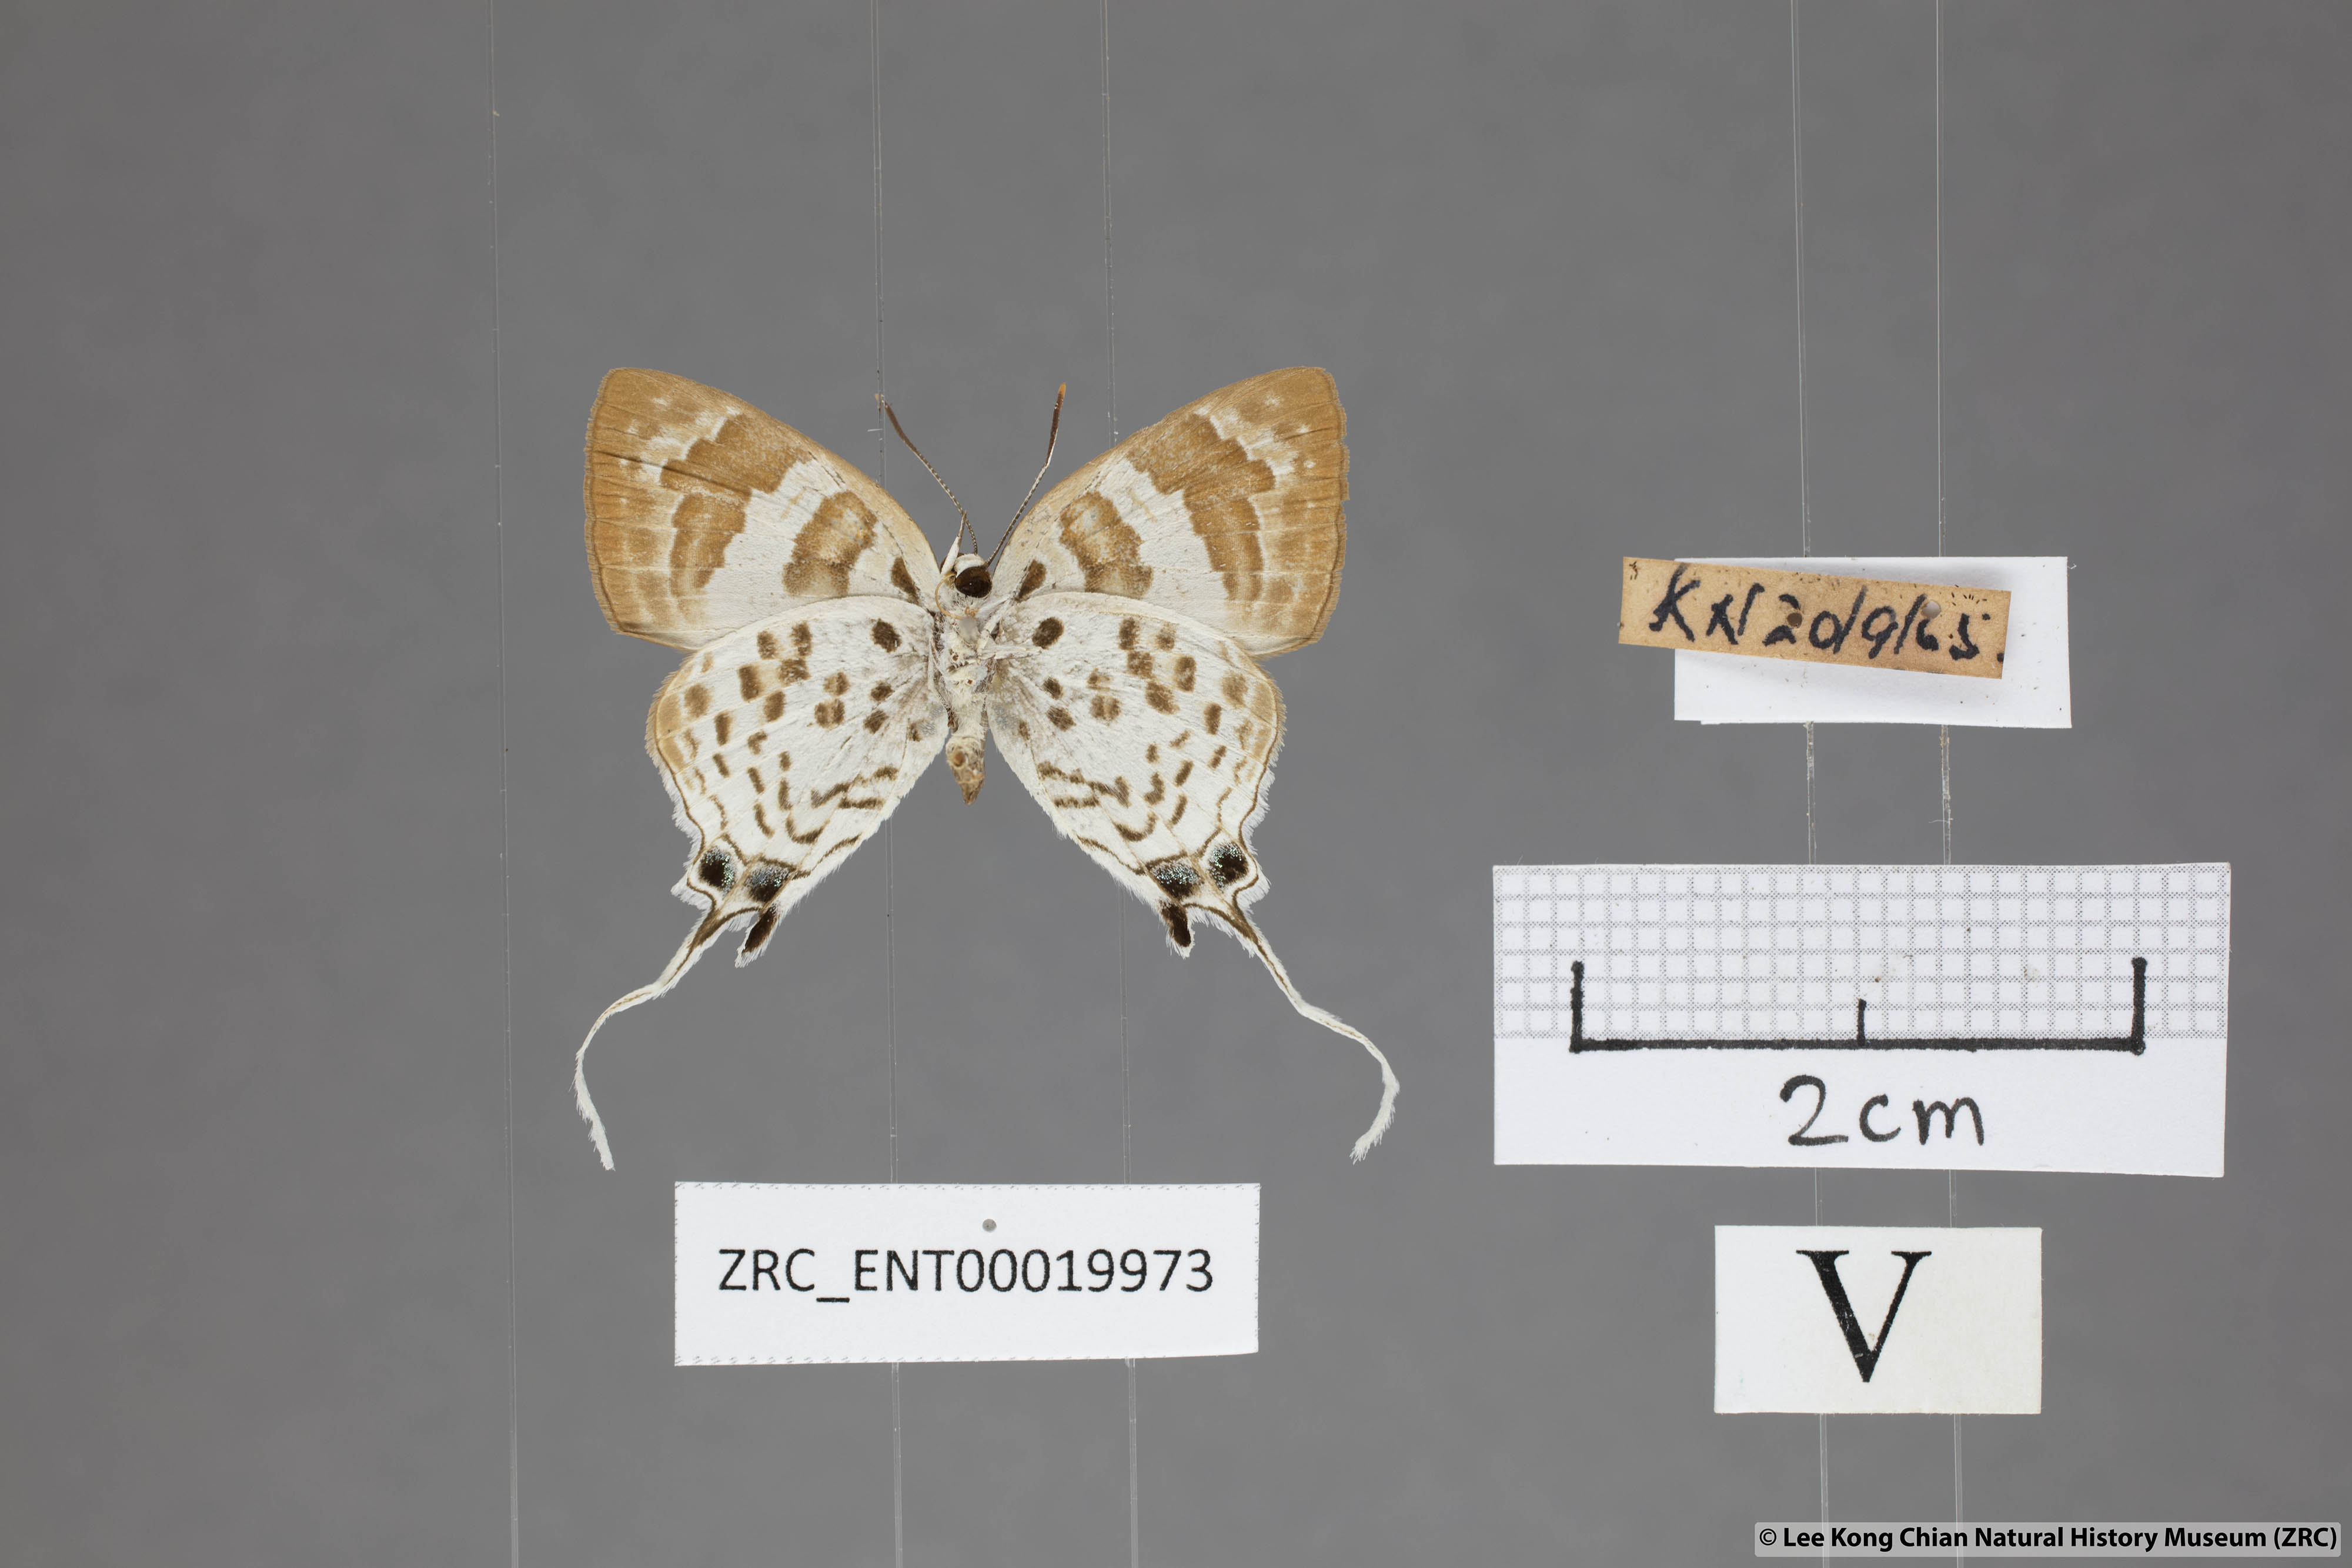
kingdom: Animalia
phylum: Arthropoda
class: Insecta
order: Lepidoptera
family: Lycaenidae
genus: Bindahara
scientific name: Bindahara phocides
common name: Sword-tailed flash
